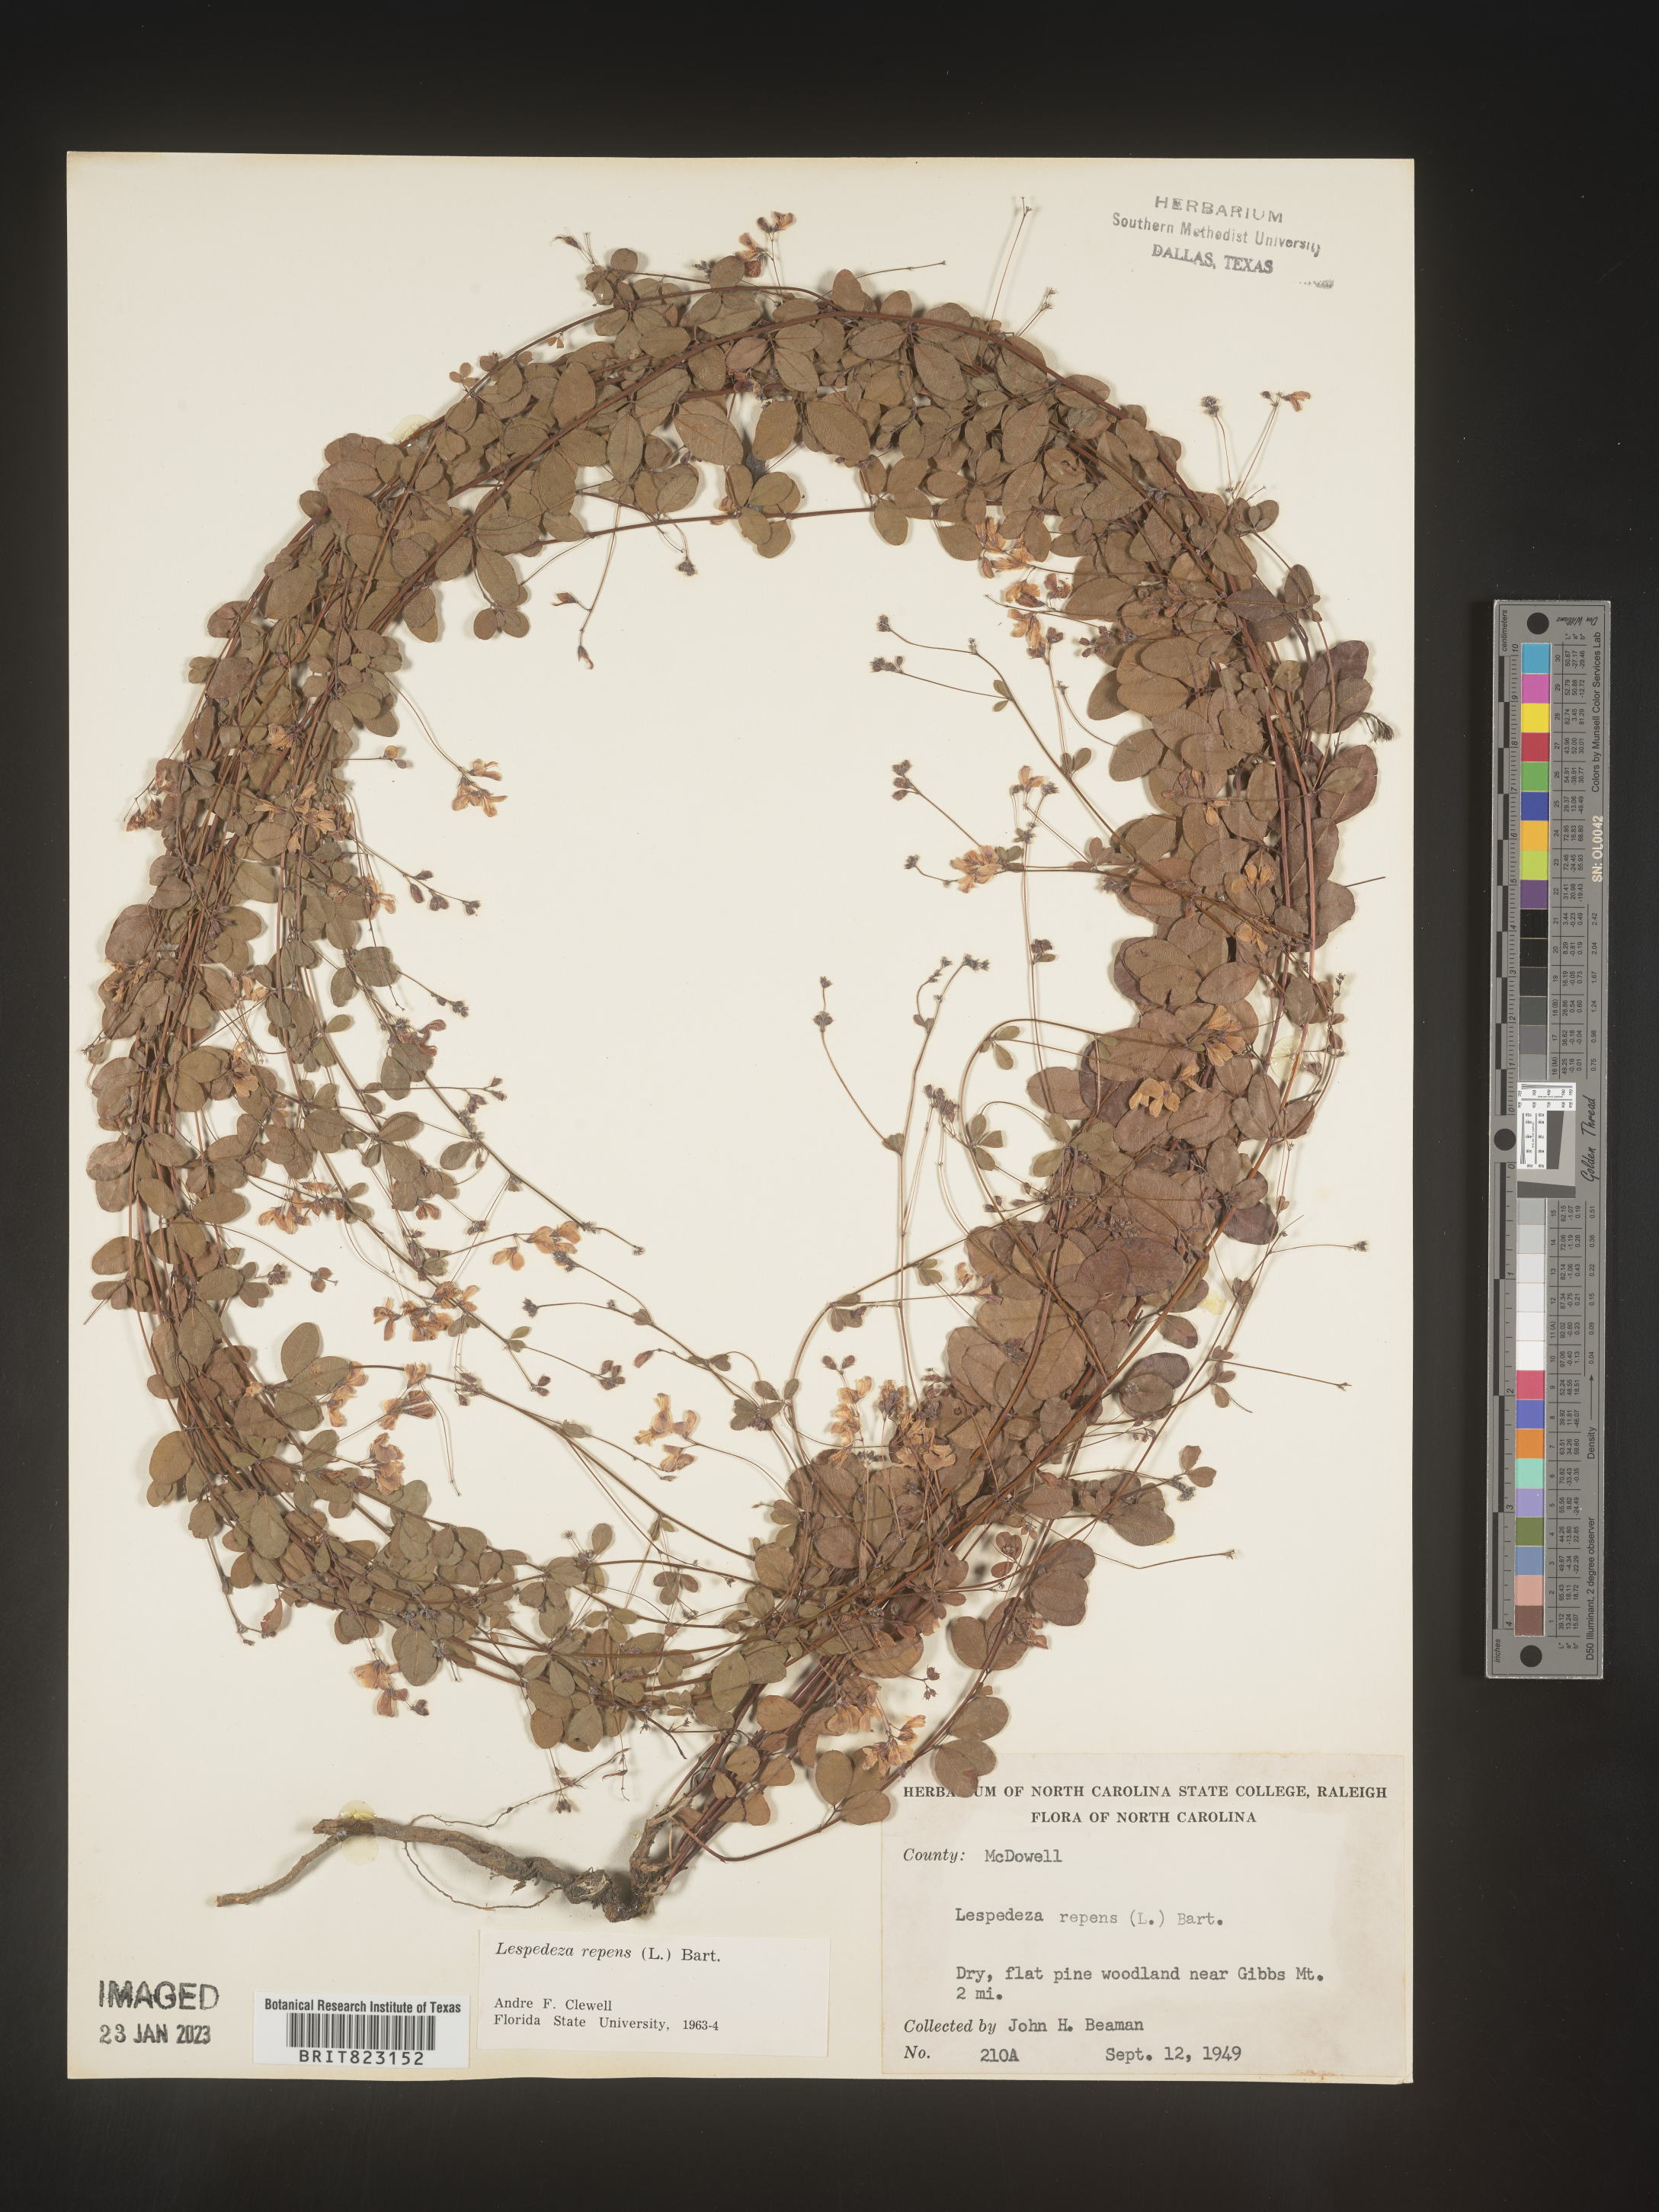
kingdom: Plantae
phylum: Tracheophyta
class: Magnoliopsida
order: Fabales
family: Fabaceae
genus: Lespedeza
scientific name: Lespedeza repens
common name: Creeping bush-clover
